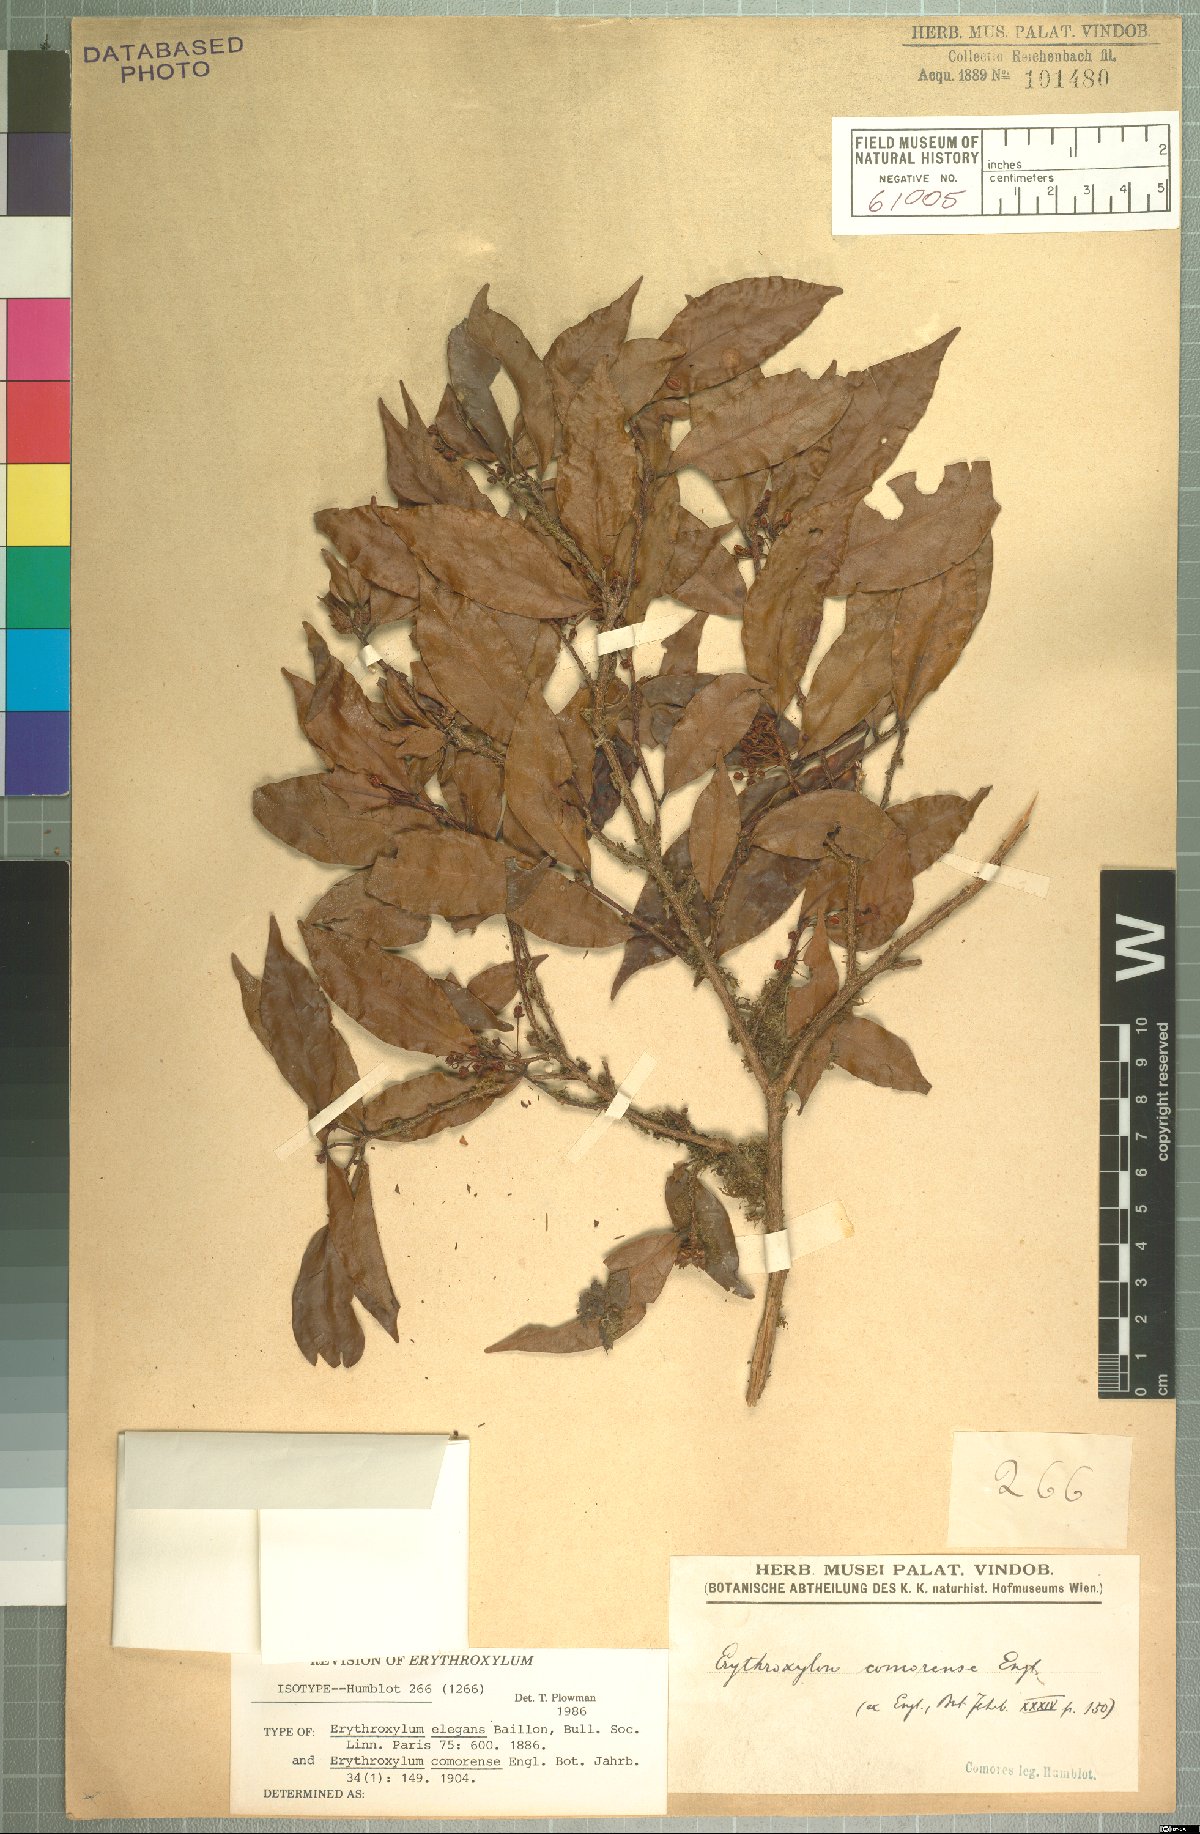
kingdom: Plantae
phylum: Tracheophyta
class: Magnoliopsida
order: Malpighiales
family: Erythroxylaceae
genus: Erythroxylum
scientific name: Erythroxylum elegans
